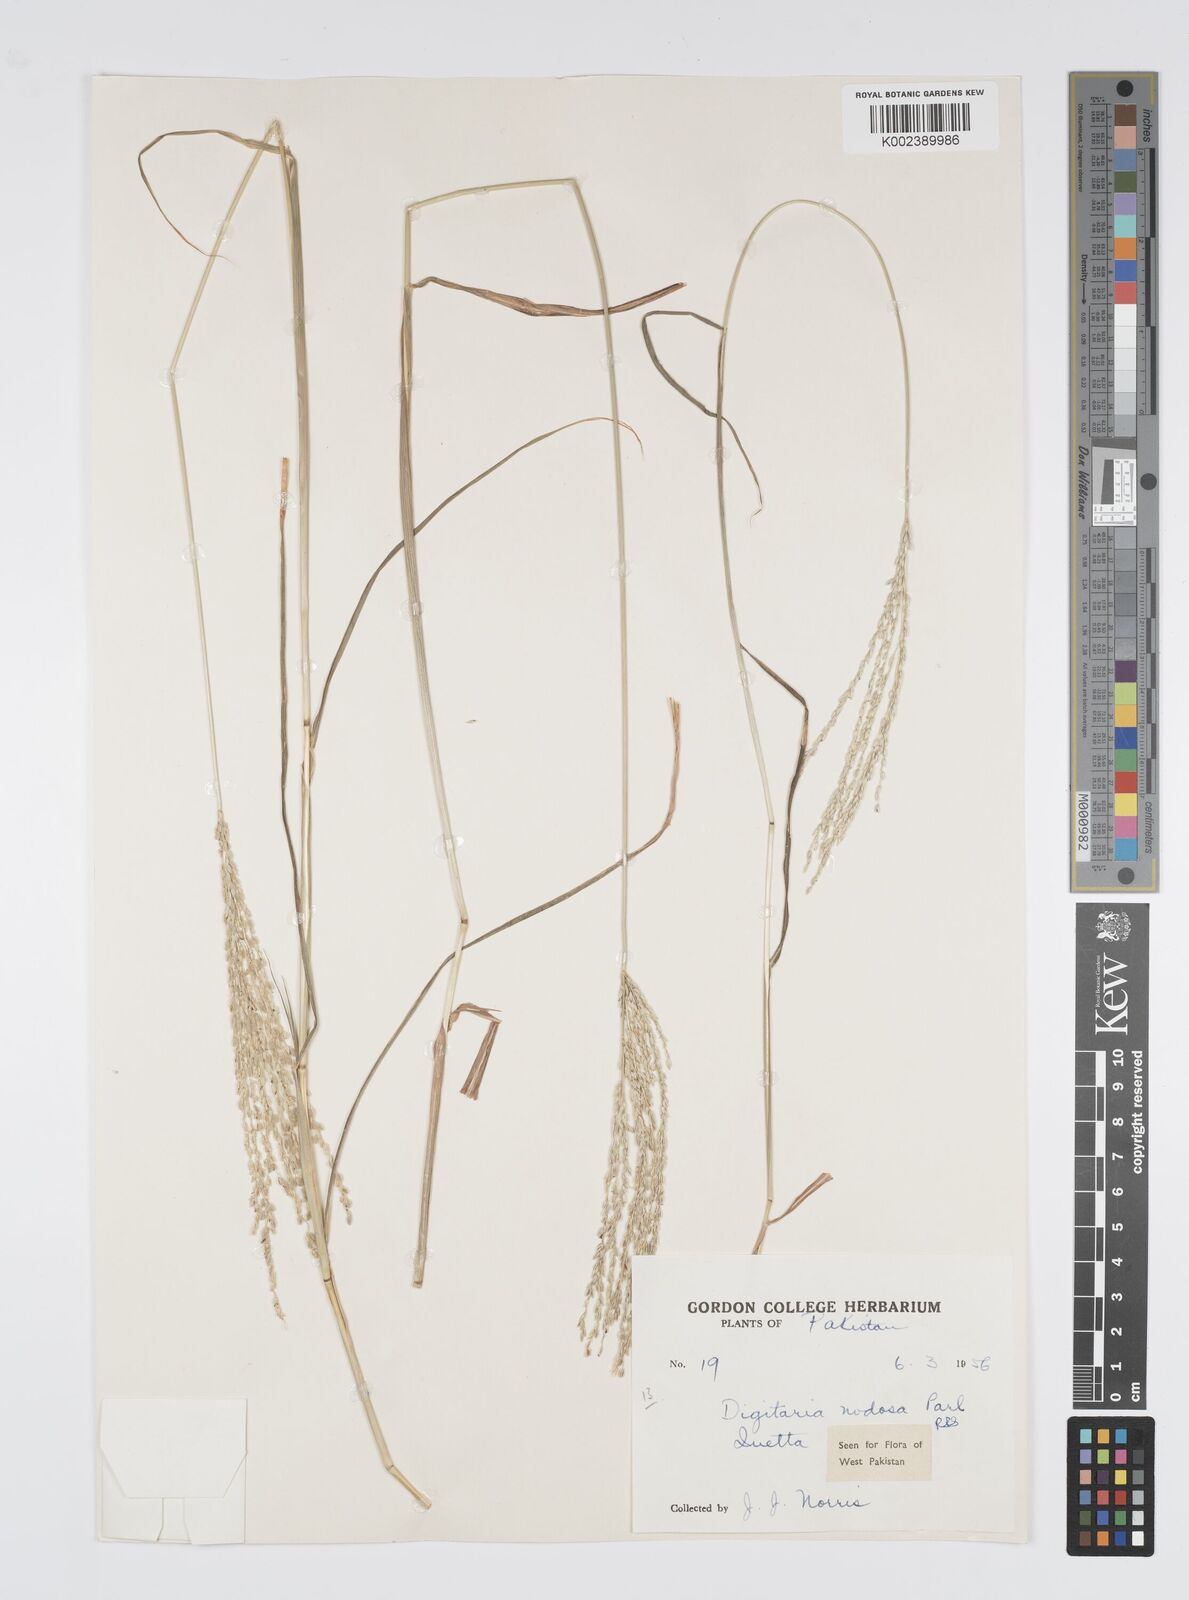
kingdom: Plantae
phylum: Tracheophyta
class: Liliopsida
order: Poales
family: Poaceae
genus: Digitaria
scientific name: Digitaria nodosa
